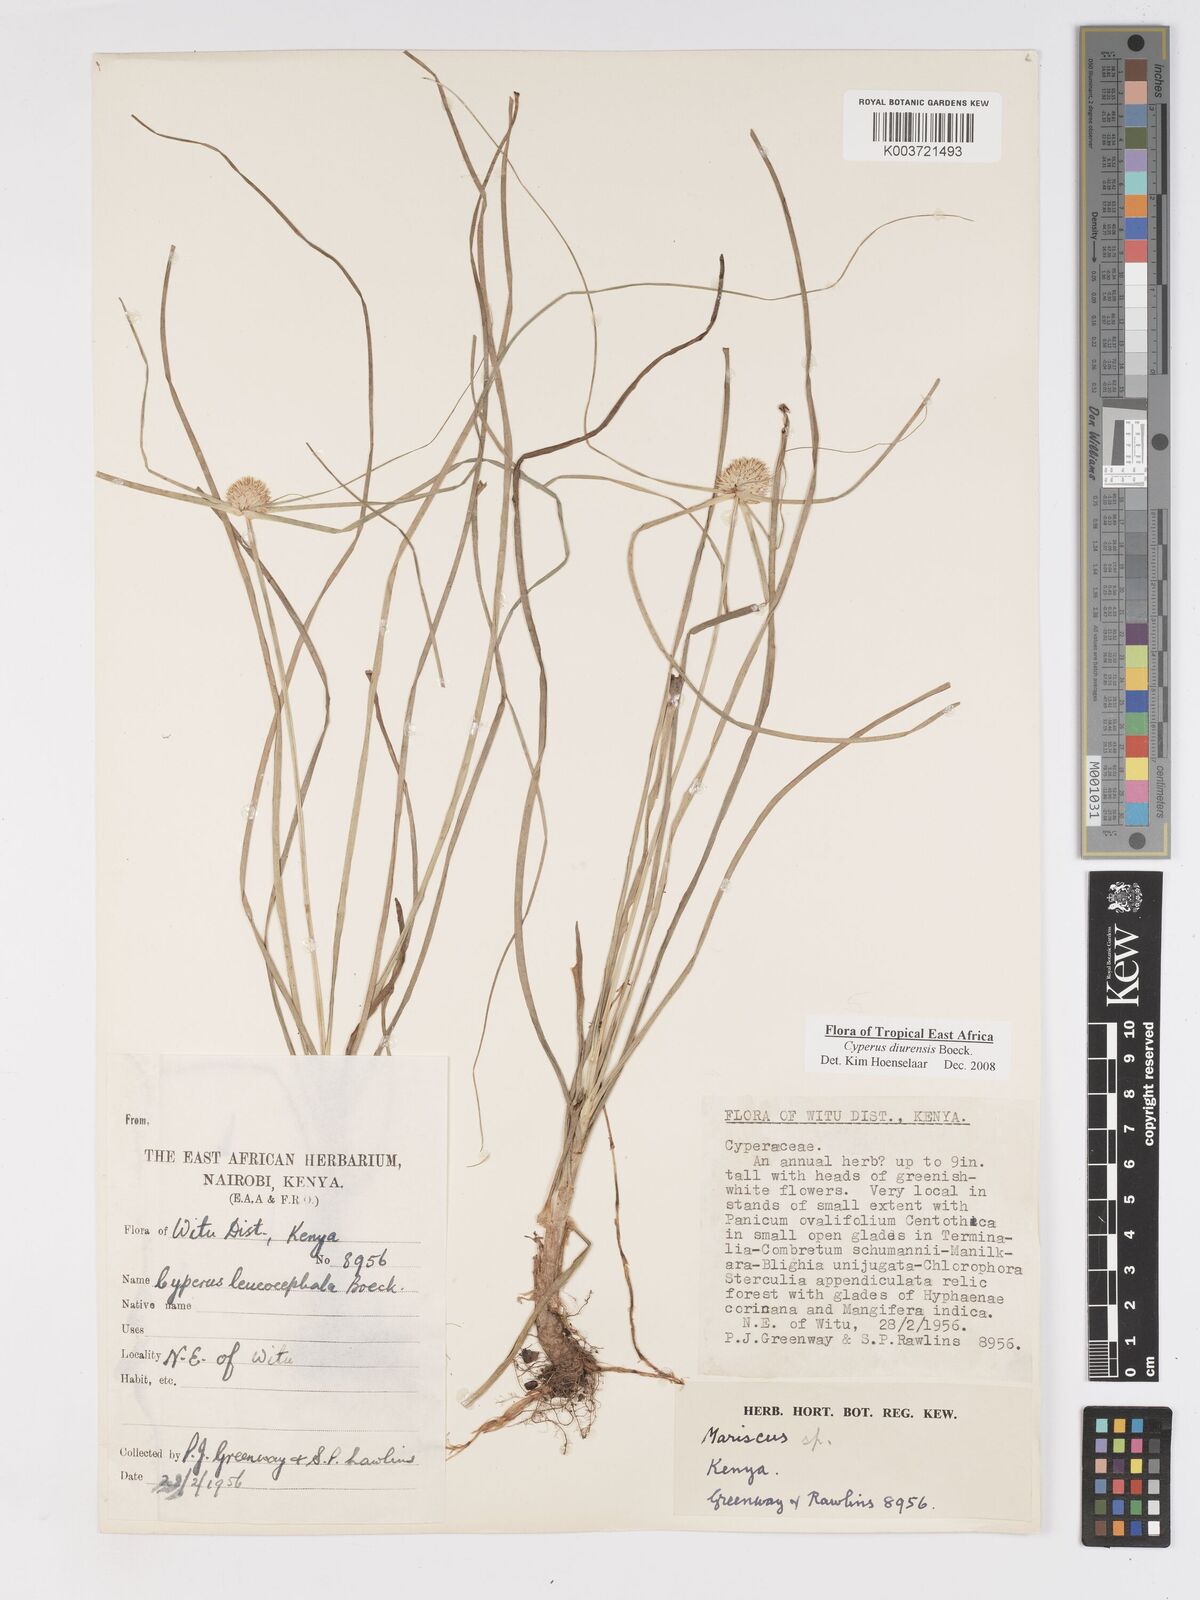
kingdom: Plantae
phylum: Tracheophyta
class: Liliopsida
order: Poales
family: Cyperaceae
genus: Cyperus
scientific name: Cyperus diurensis
